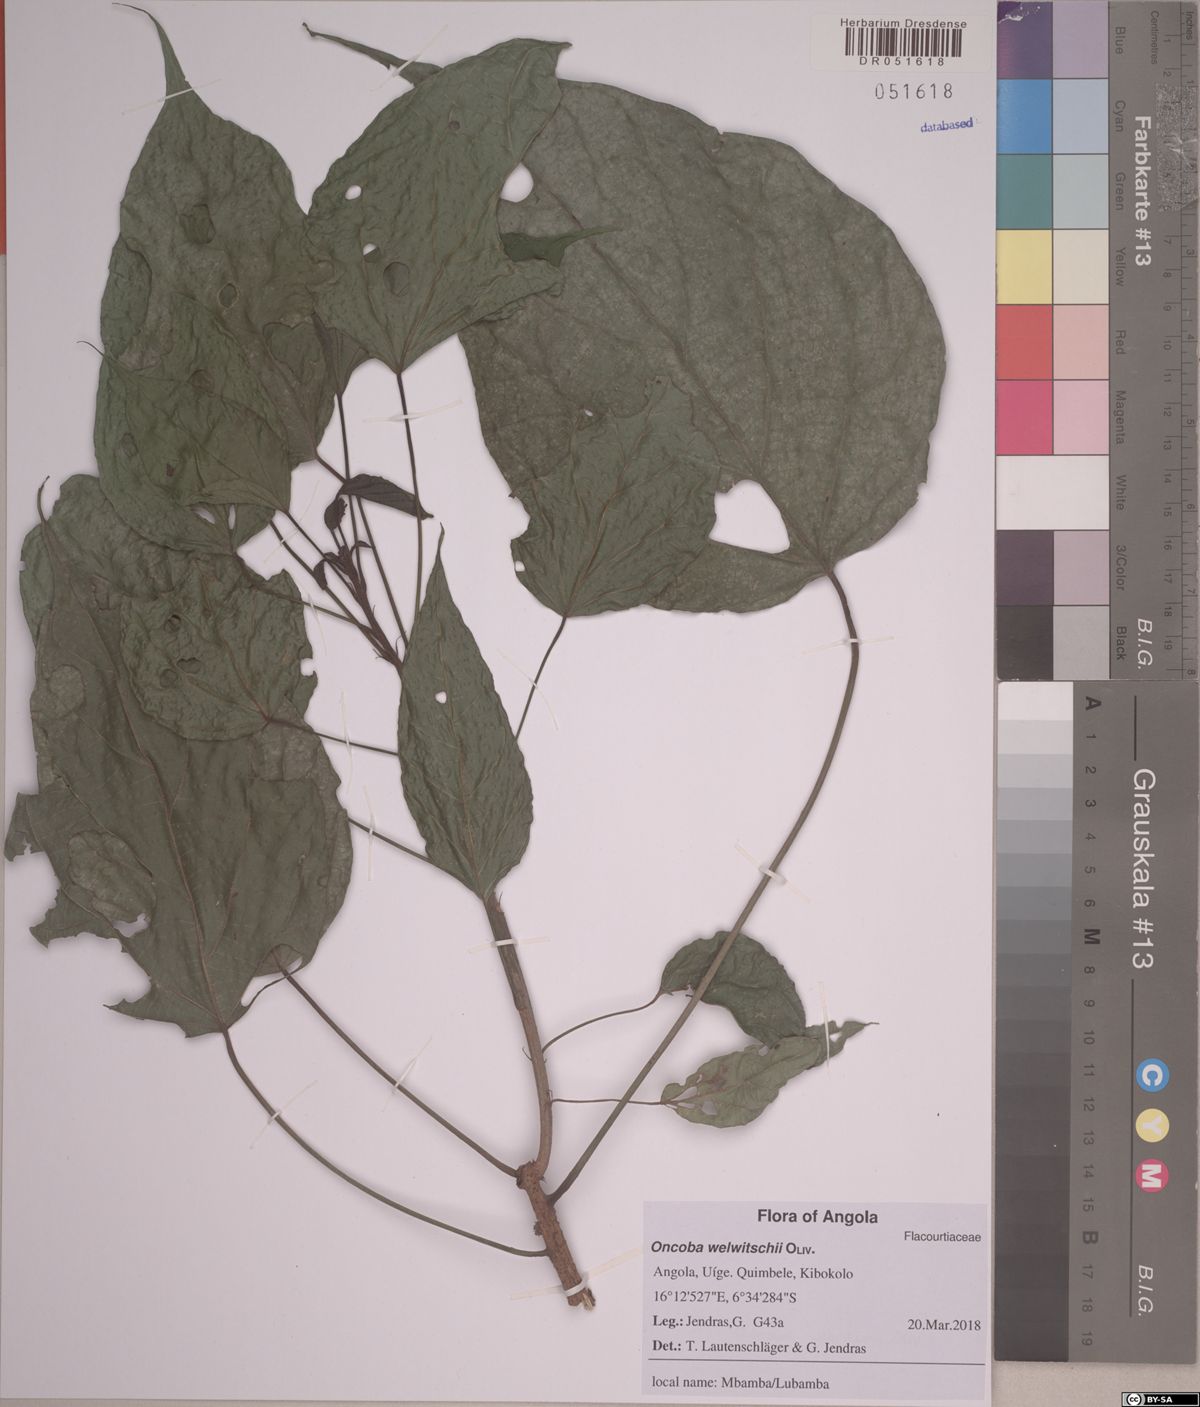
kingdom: Plantae
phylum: Tracheophyta
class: Magnoliopsida
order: Malpighiales
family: Achariaceae
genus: Caloncoba
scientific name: Caloncoba welwitschii
